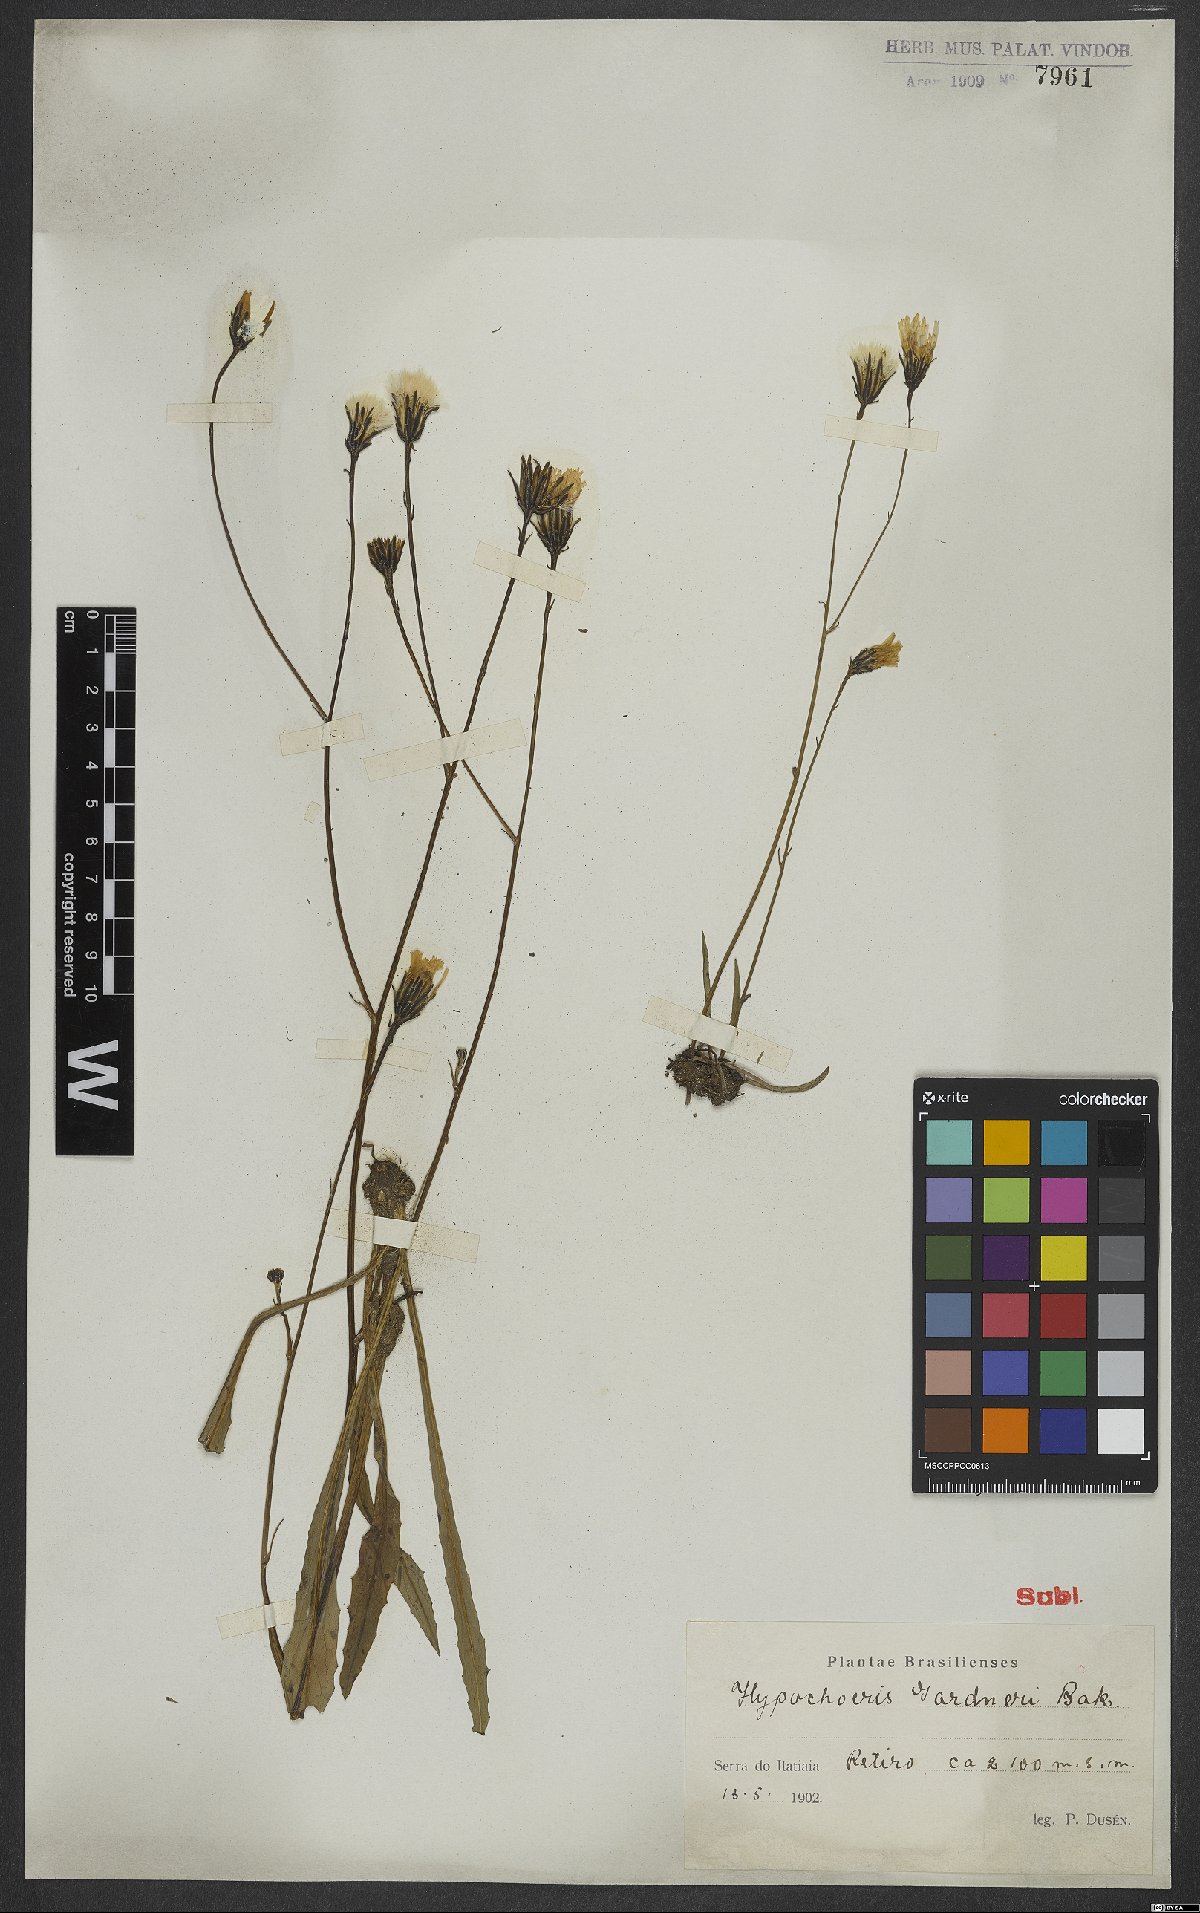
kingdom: Plantae
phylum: Tracheophyta
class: Magnoliopsida
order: Asterales
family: Asteraceae
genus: Hypochaeris
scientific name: Hypochaeris lutea
